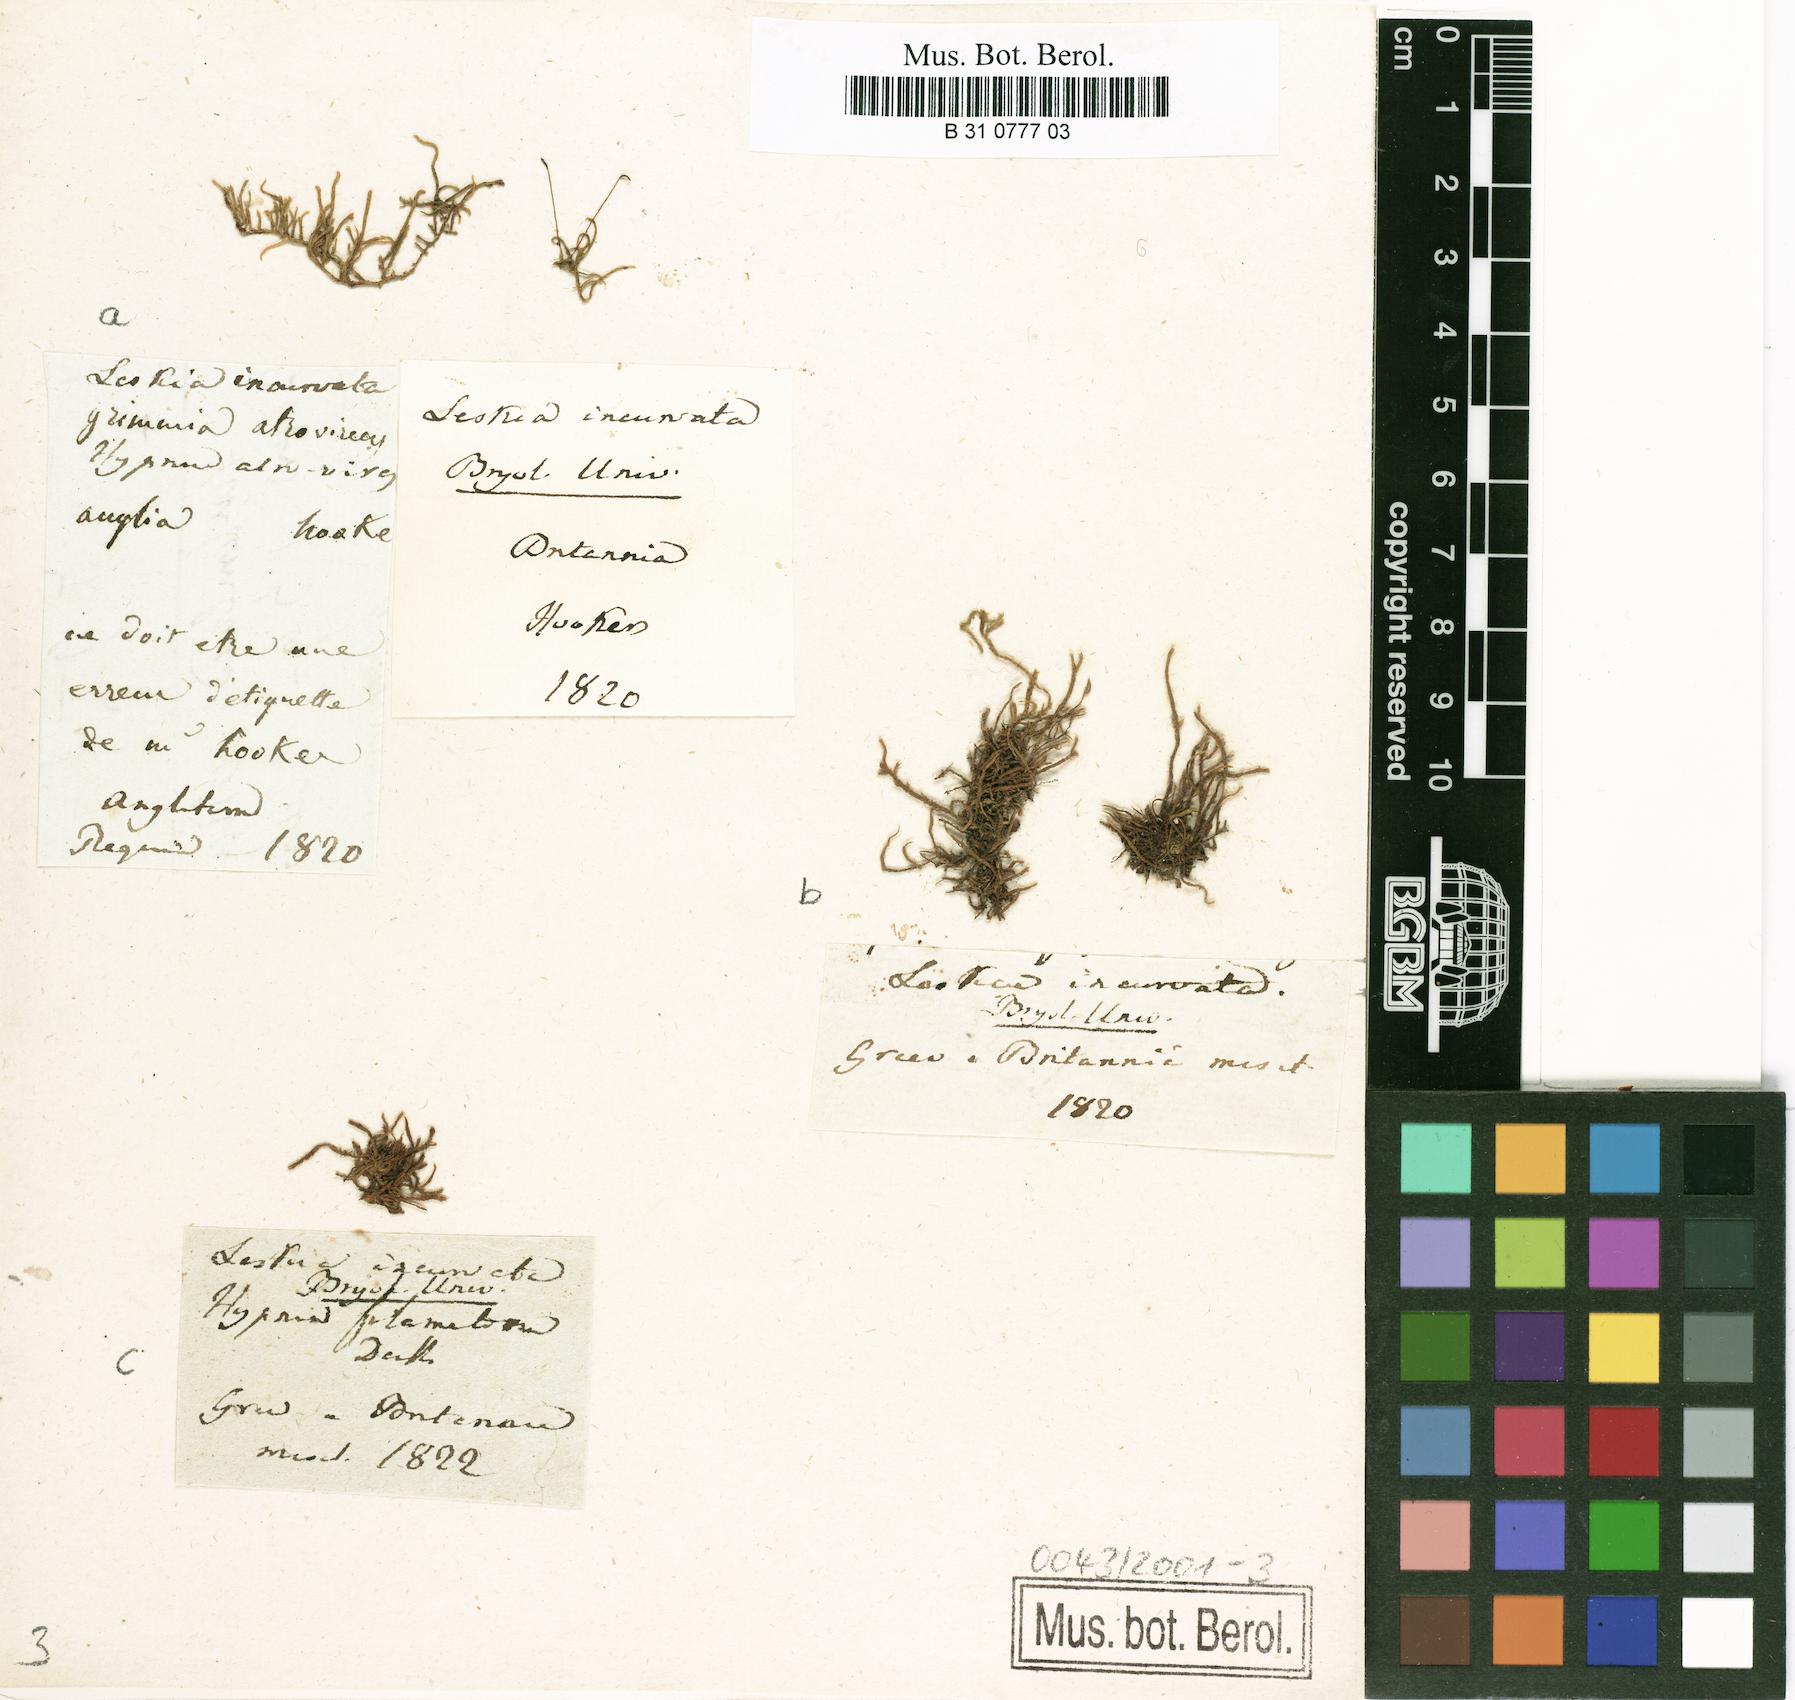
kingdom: Plantae
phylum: Bryophyta
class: Bryopsida
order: Hypnales
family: Pseudoleskeaceae
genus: Lescuraea
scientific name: Lescuraea incurvata
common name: Brown mountain leskea
